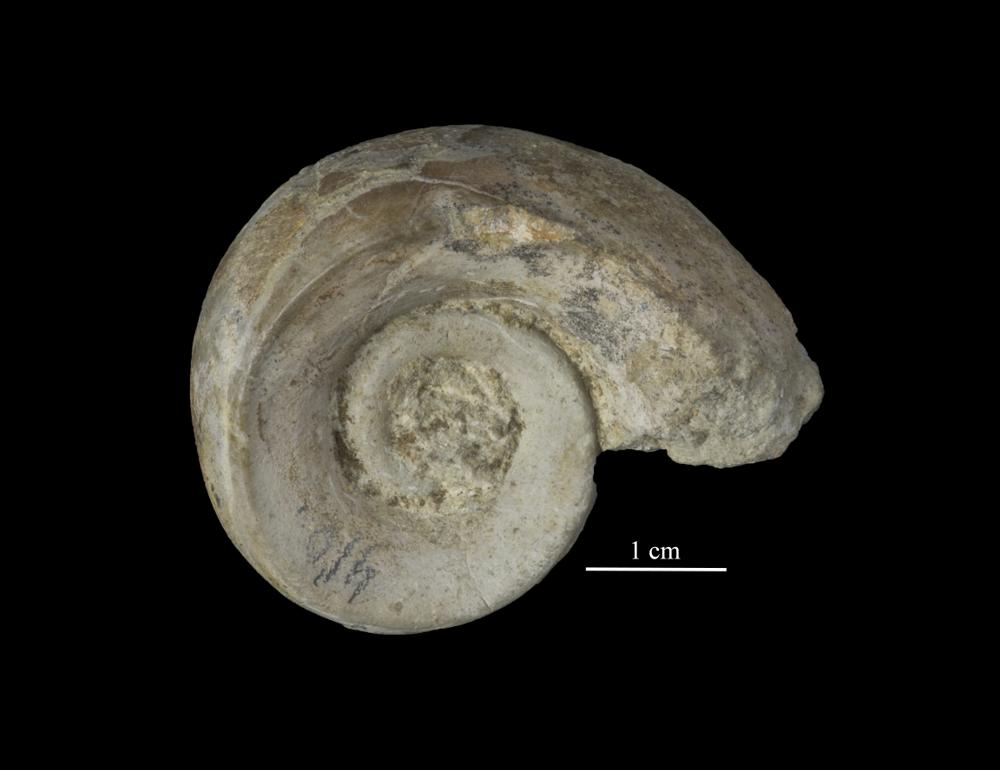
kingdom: Animalia
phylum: Mollusca
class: Gastropoda
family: Lesueurillidae
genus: Lesueurilla
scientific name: Lesueurilla
